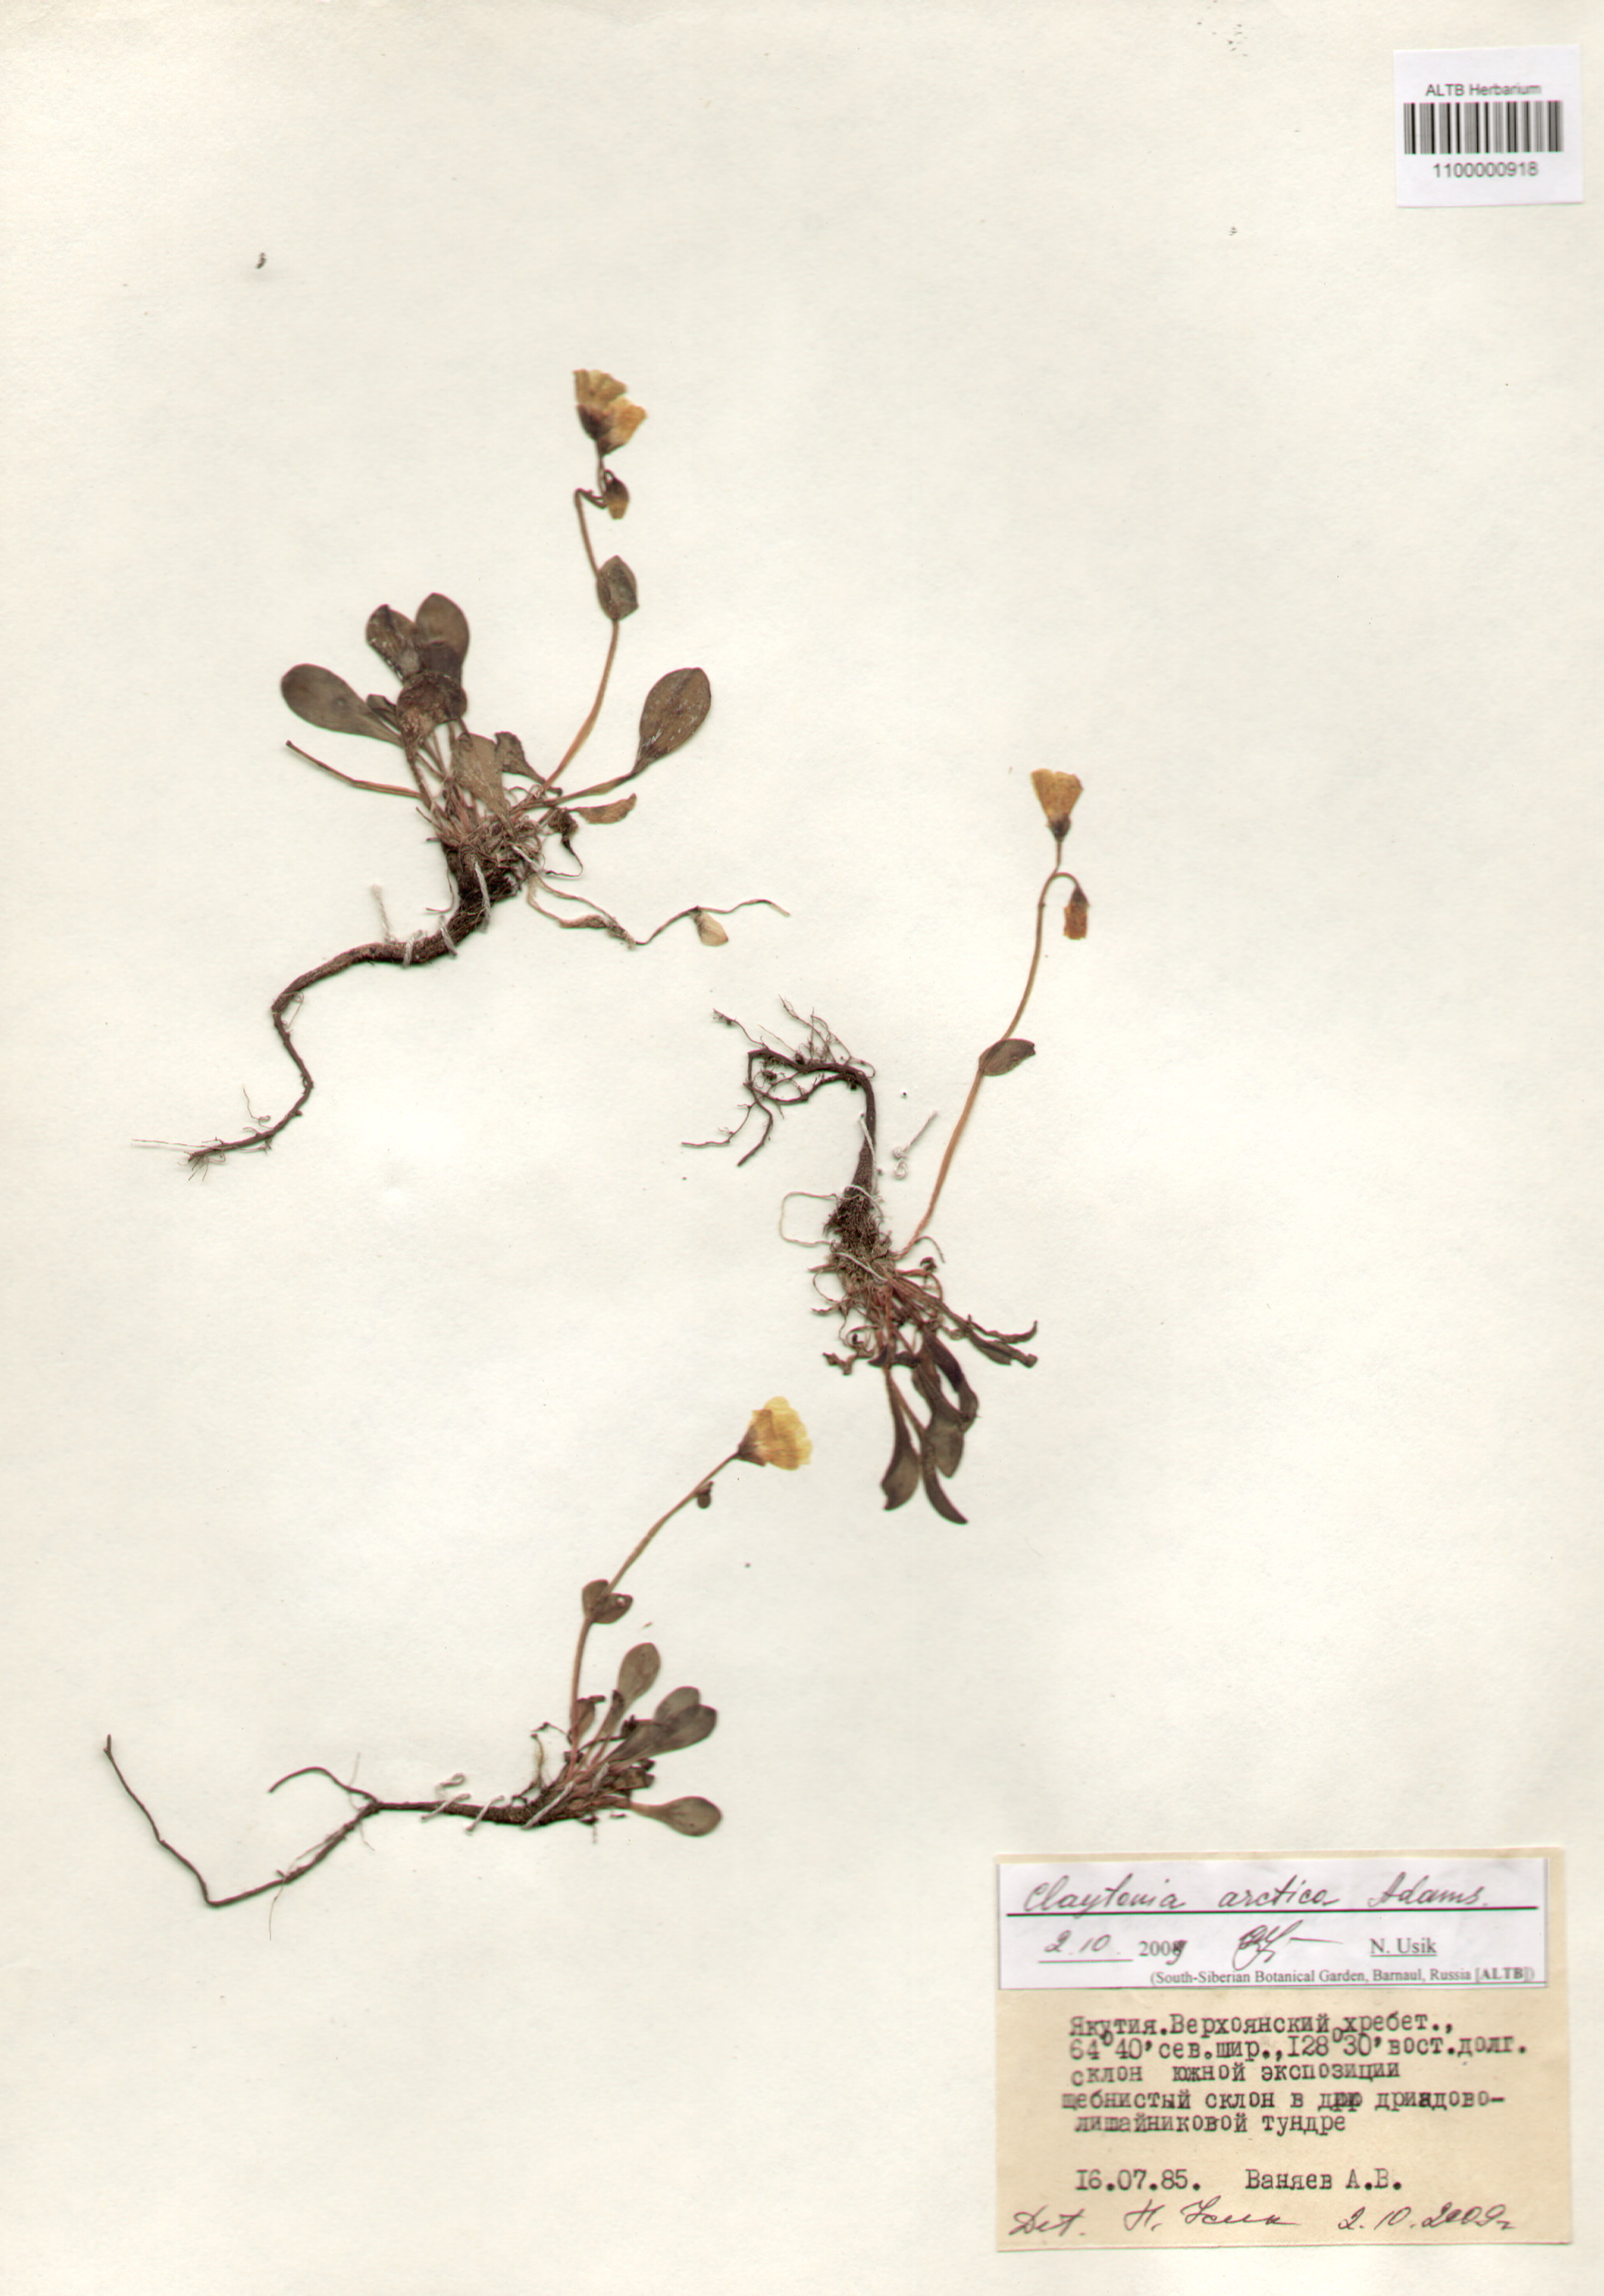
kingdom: Plantae
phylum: Tracheophyta
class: Magnoliopsida
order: Caryophyllales
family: Montiaceae
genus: Claytonia
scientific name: Claytonia acutifolia
